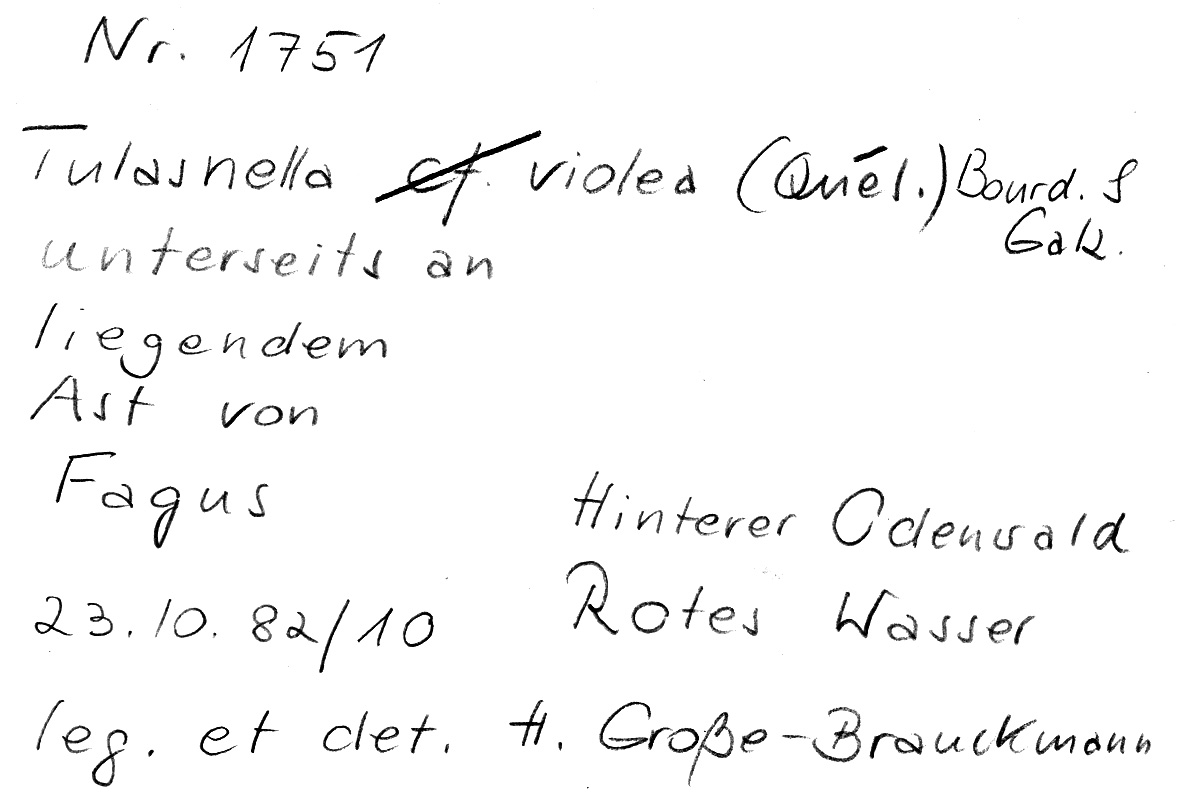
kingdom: Fungi
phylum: Basidiomycota
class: Agaricomycetes
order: Cantharellales
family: Tulasnellaceae
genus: Tulasnella
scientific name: Tulasnella violea
